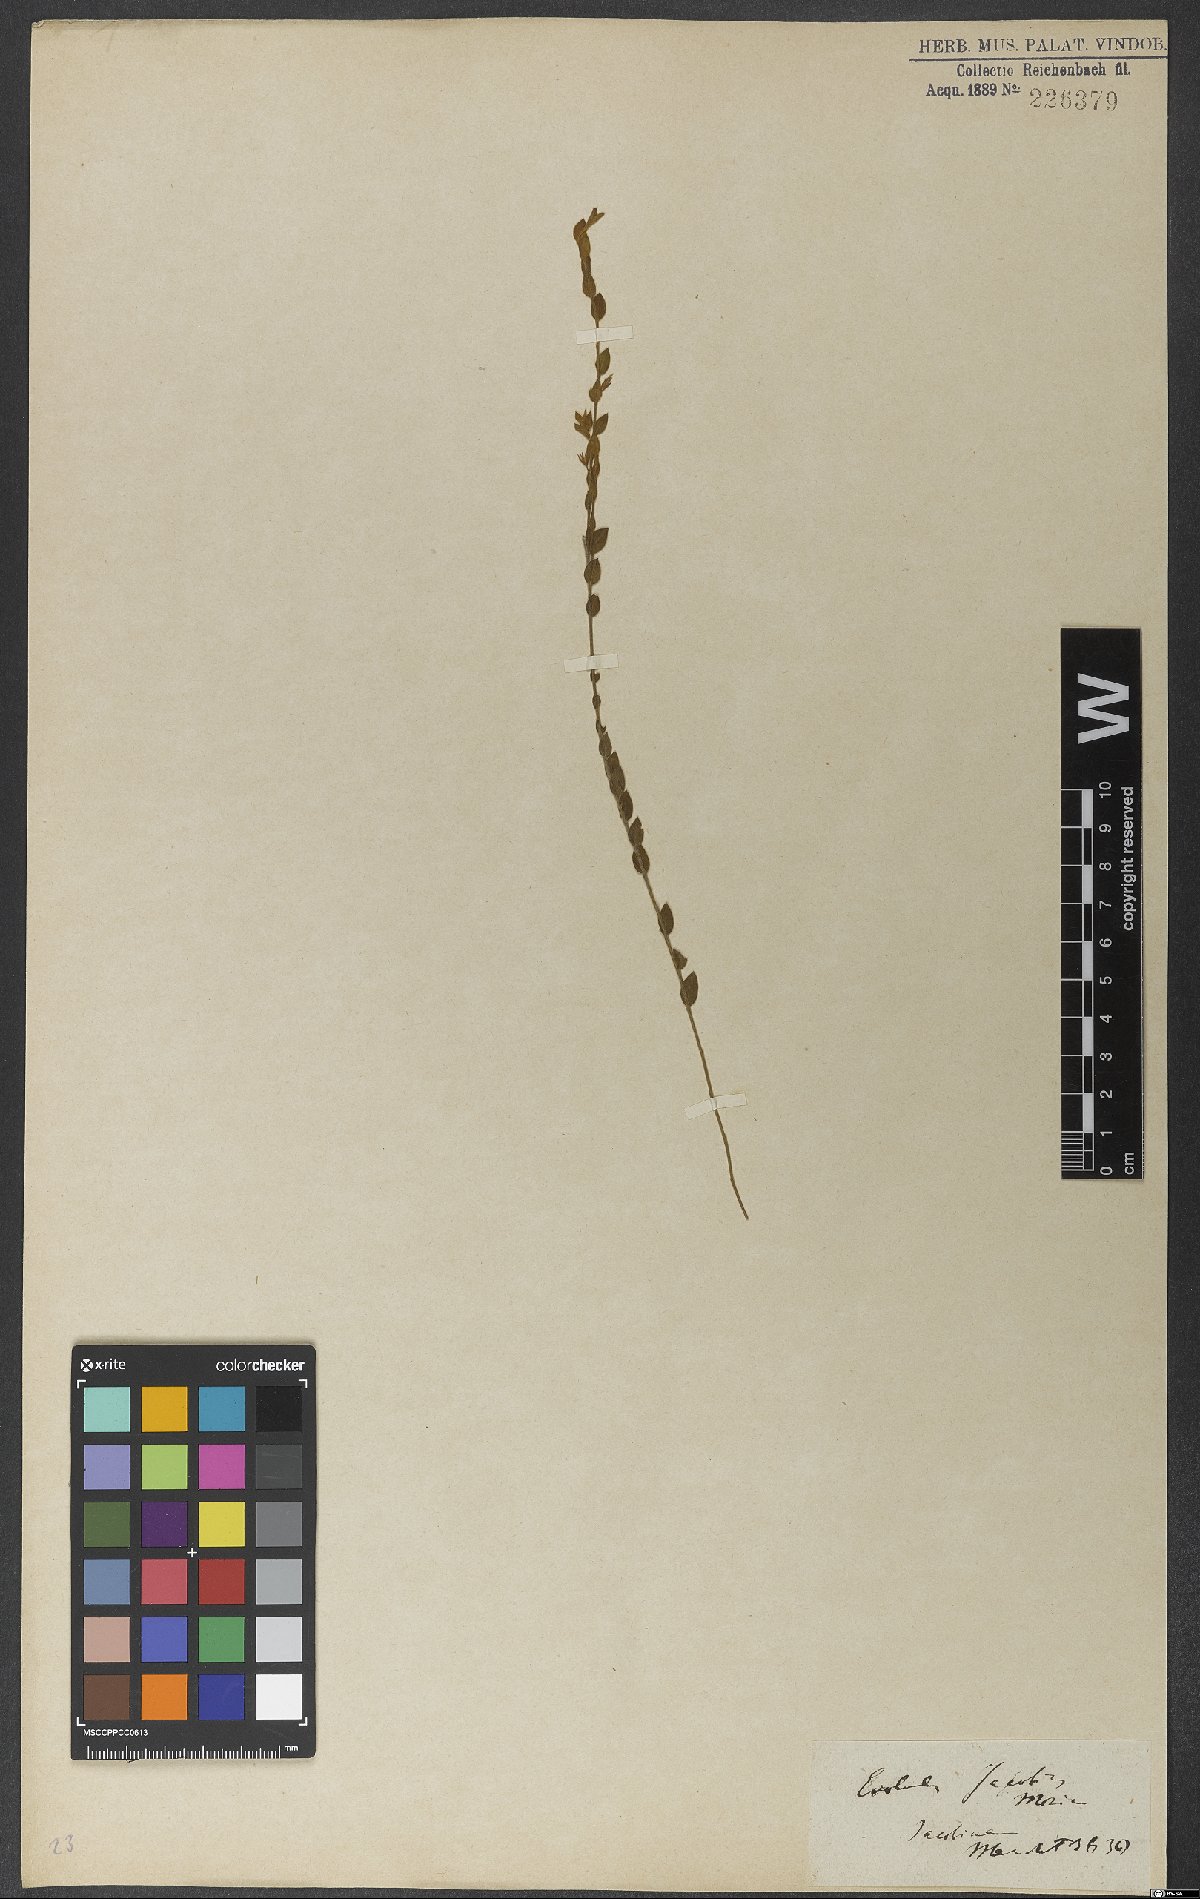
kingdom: Plantae
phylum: Tracheophyta
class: Magnoliopsida
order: Solanales
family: Convolvulaceae
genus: Evolvulus
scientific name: Evolvulus jacobinus
